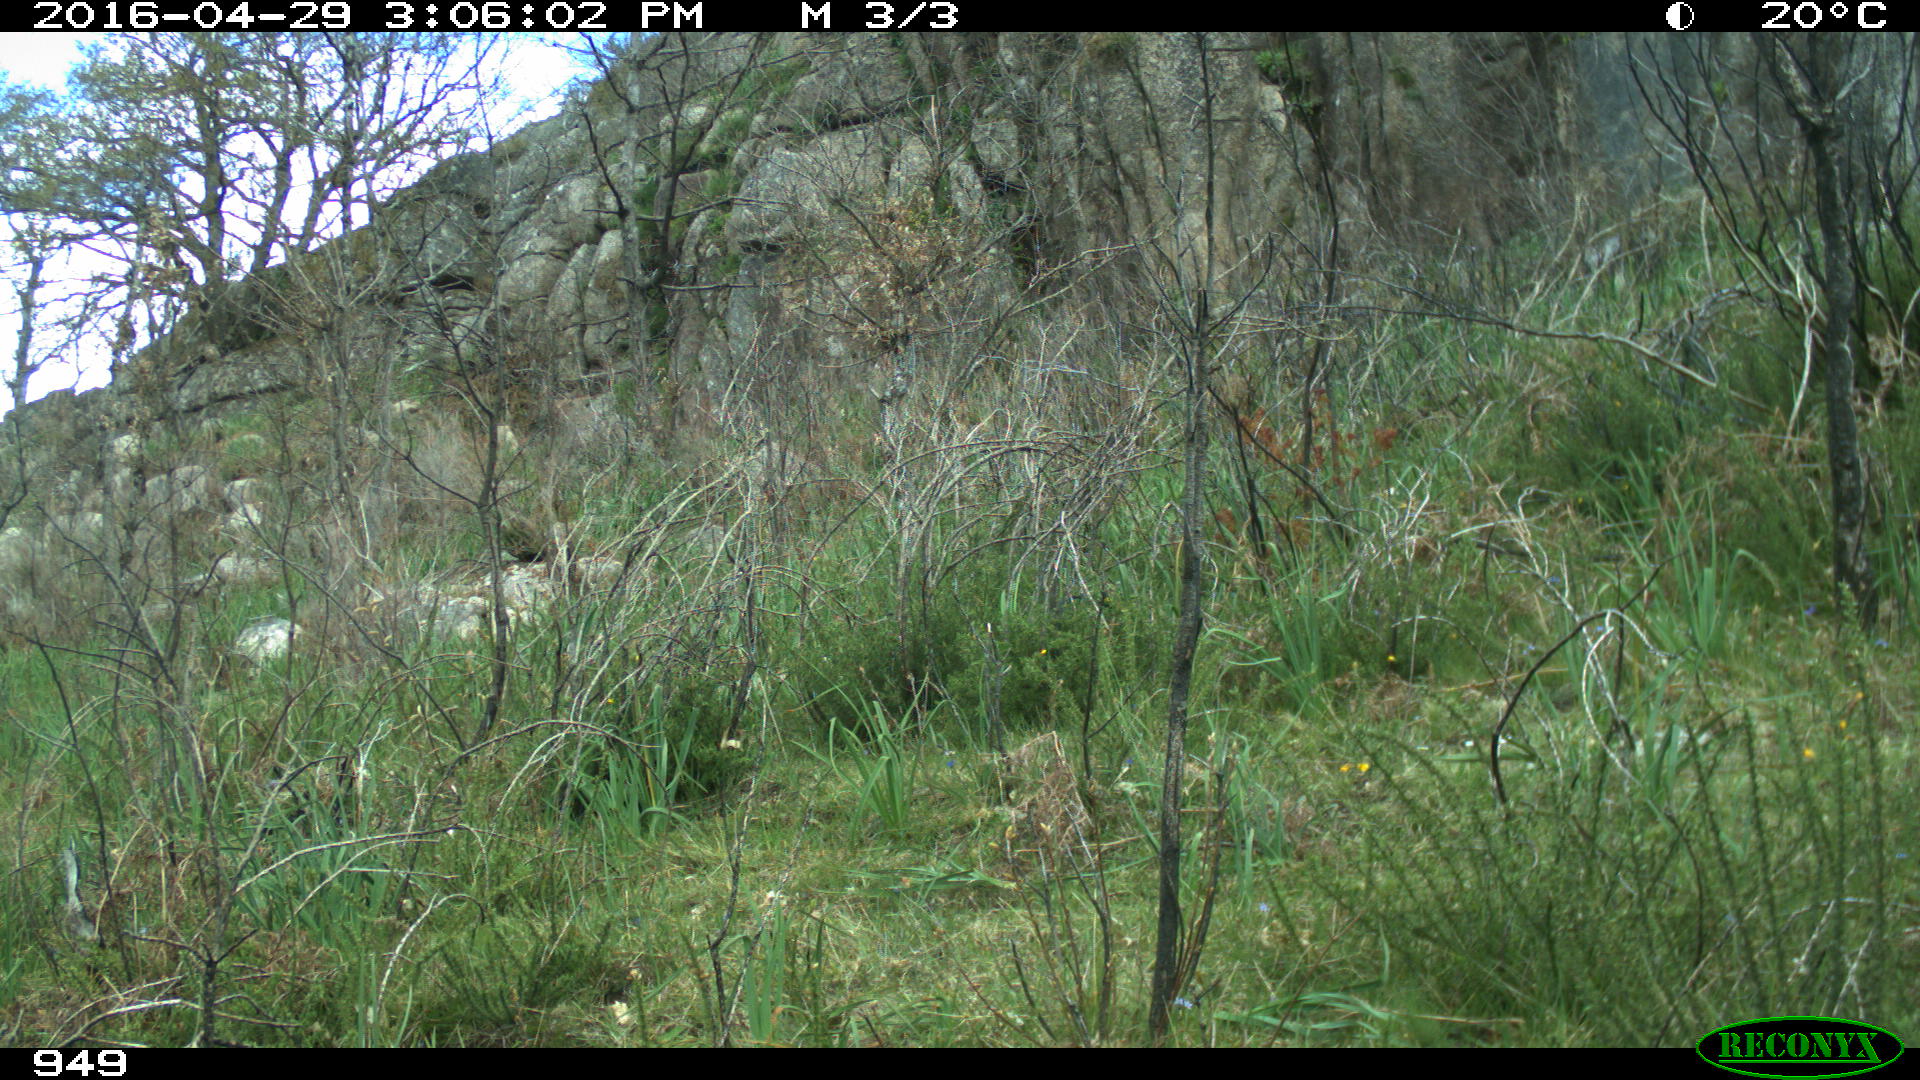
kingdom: Animalia
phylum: Chordata
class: Mammalia
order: Carnivora
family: Canidae
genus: Vulpes
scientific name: Vulpes vulpes
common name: Red fox
